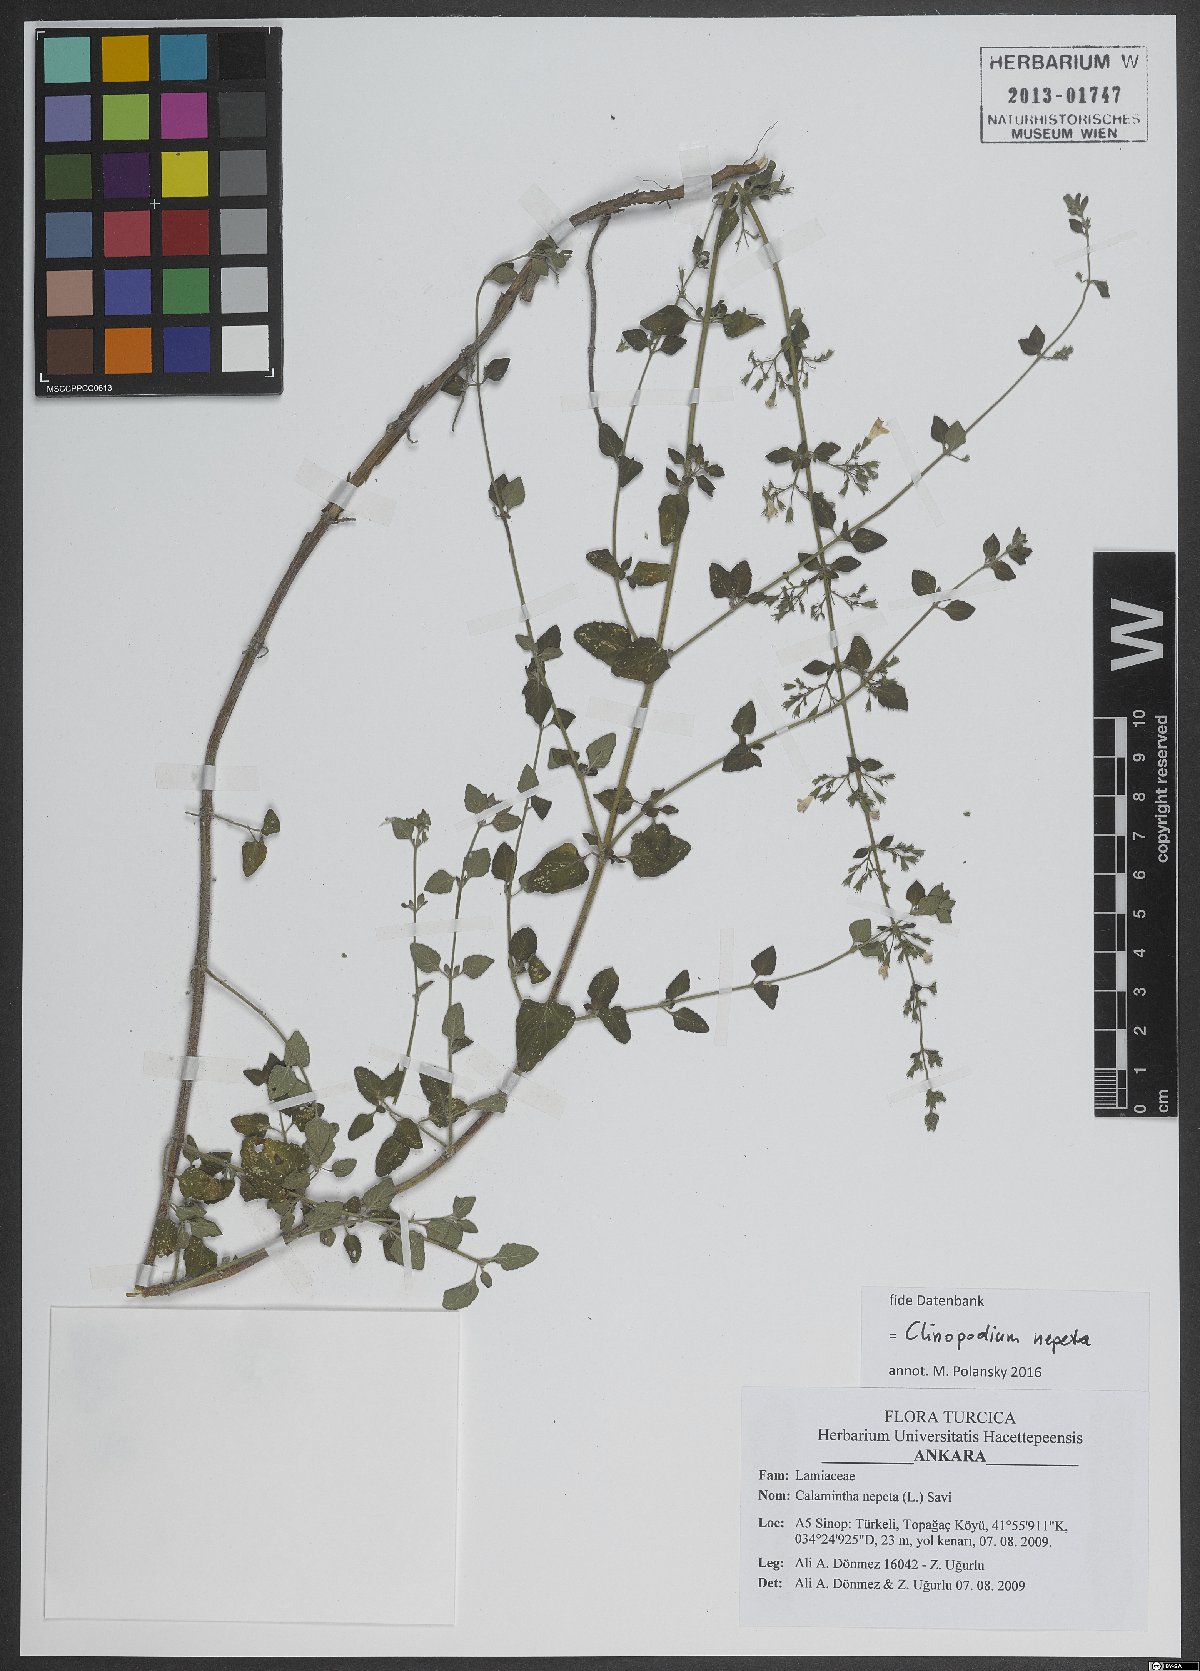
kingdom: Plantae
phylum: Tracheophyta
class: Magnoliopsida
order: Lamiales
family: Lamiaceae
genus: Clinopodium
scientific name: Clinopodium nepeta
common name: Lesser calamint
